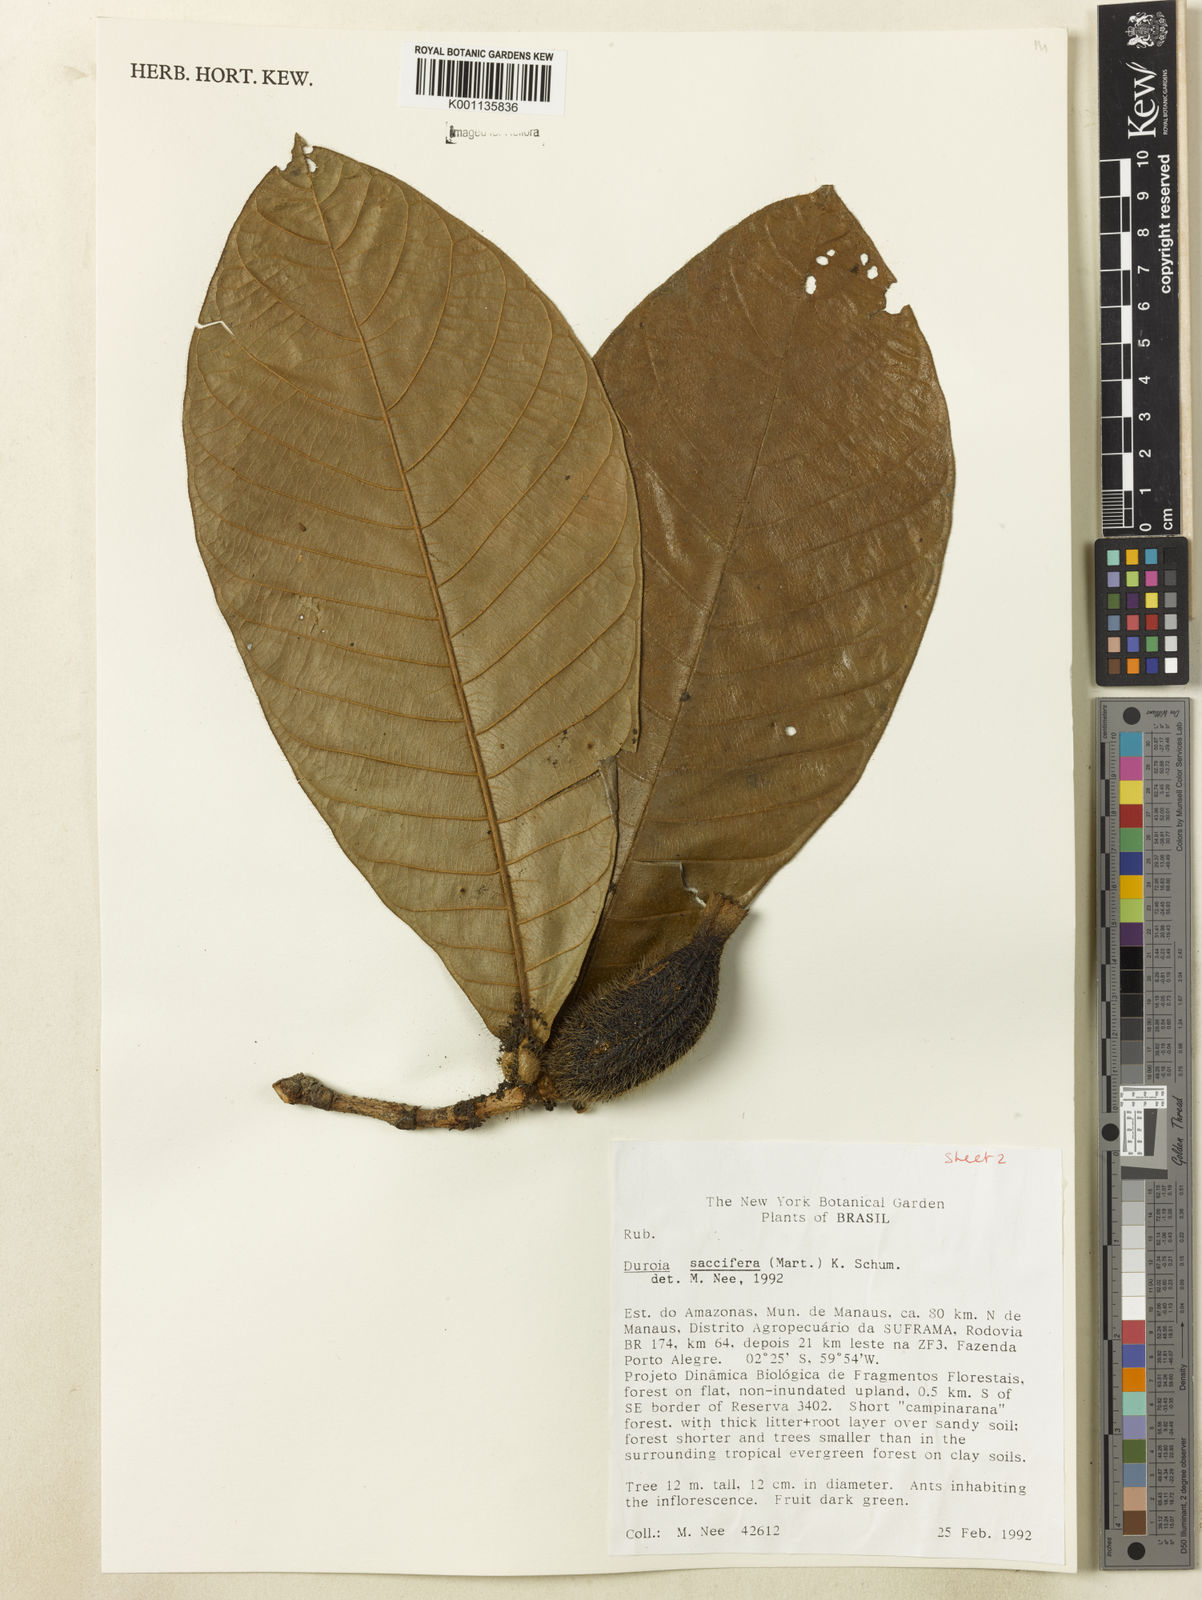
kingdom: Plantae
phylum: Tracheophyta
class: Magnoliopsida
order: Gentianales
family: Rubiaceae
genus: Duroia
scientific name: Duroia saccifera
